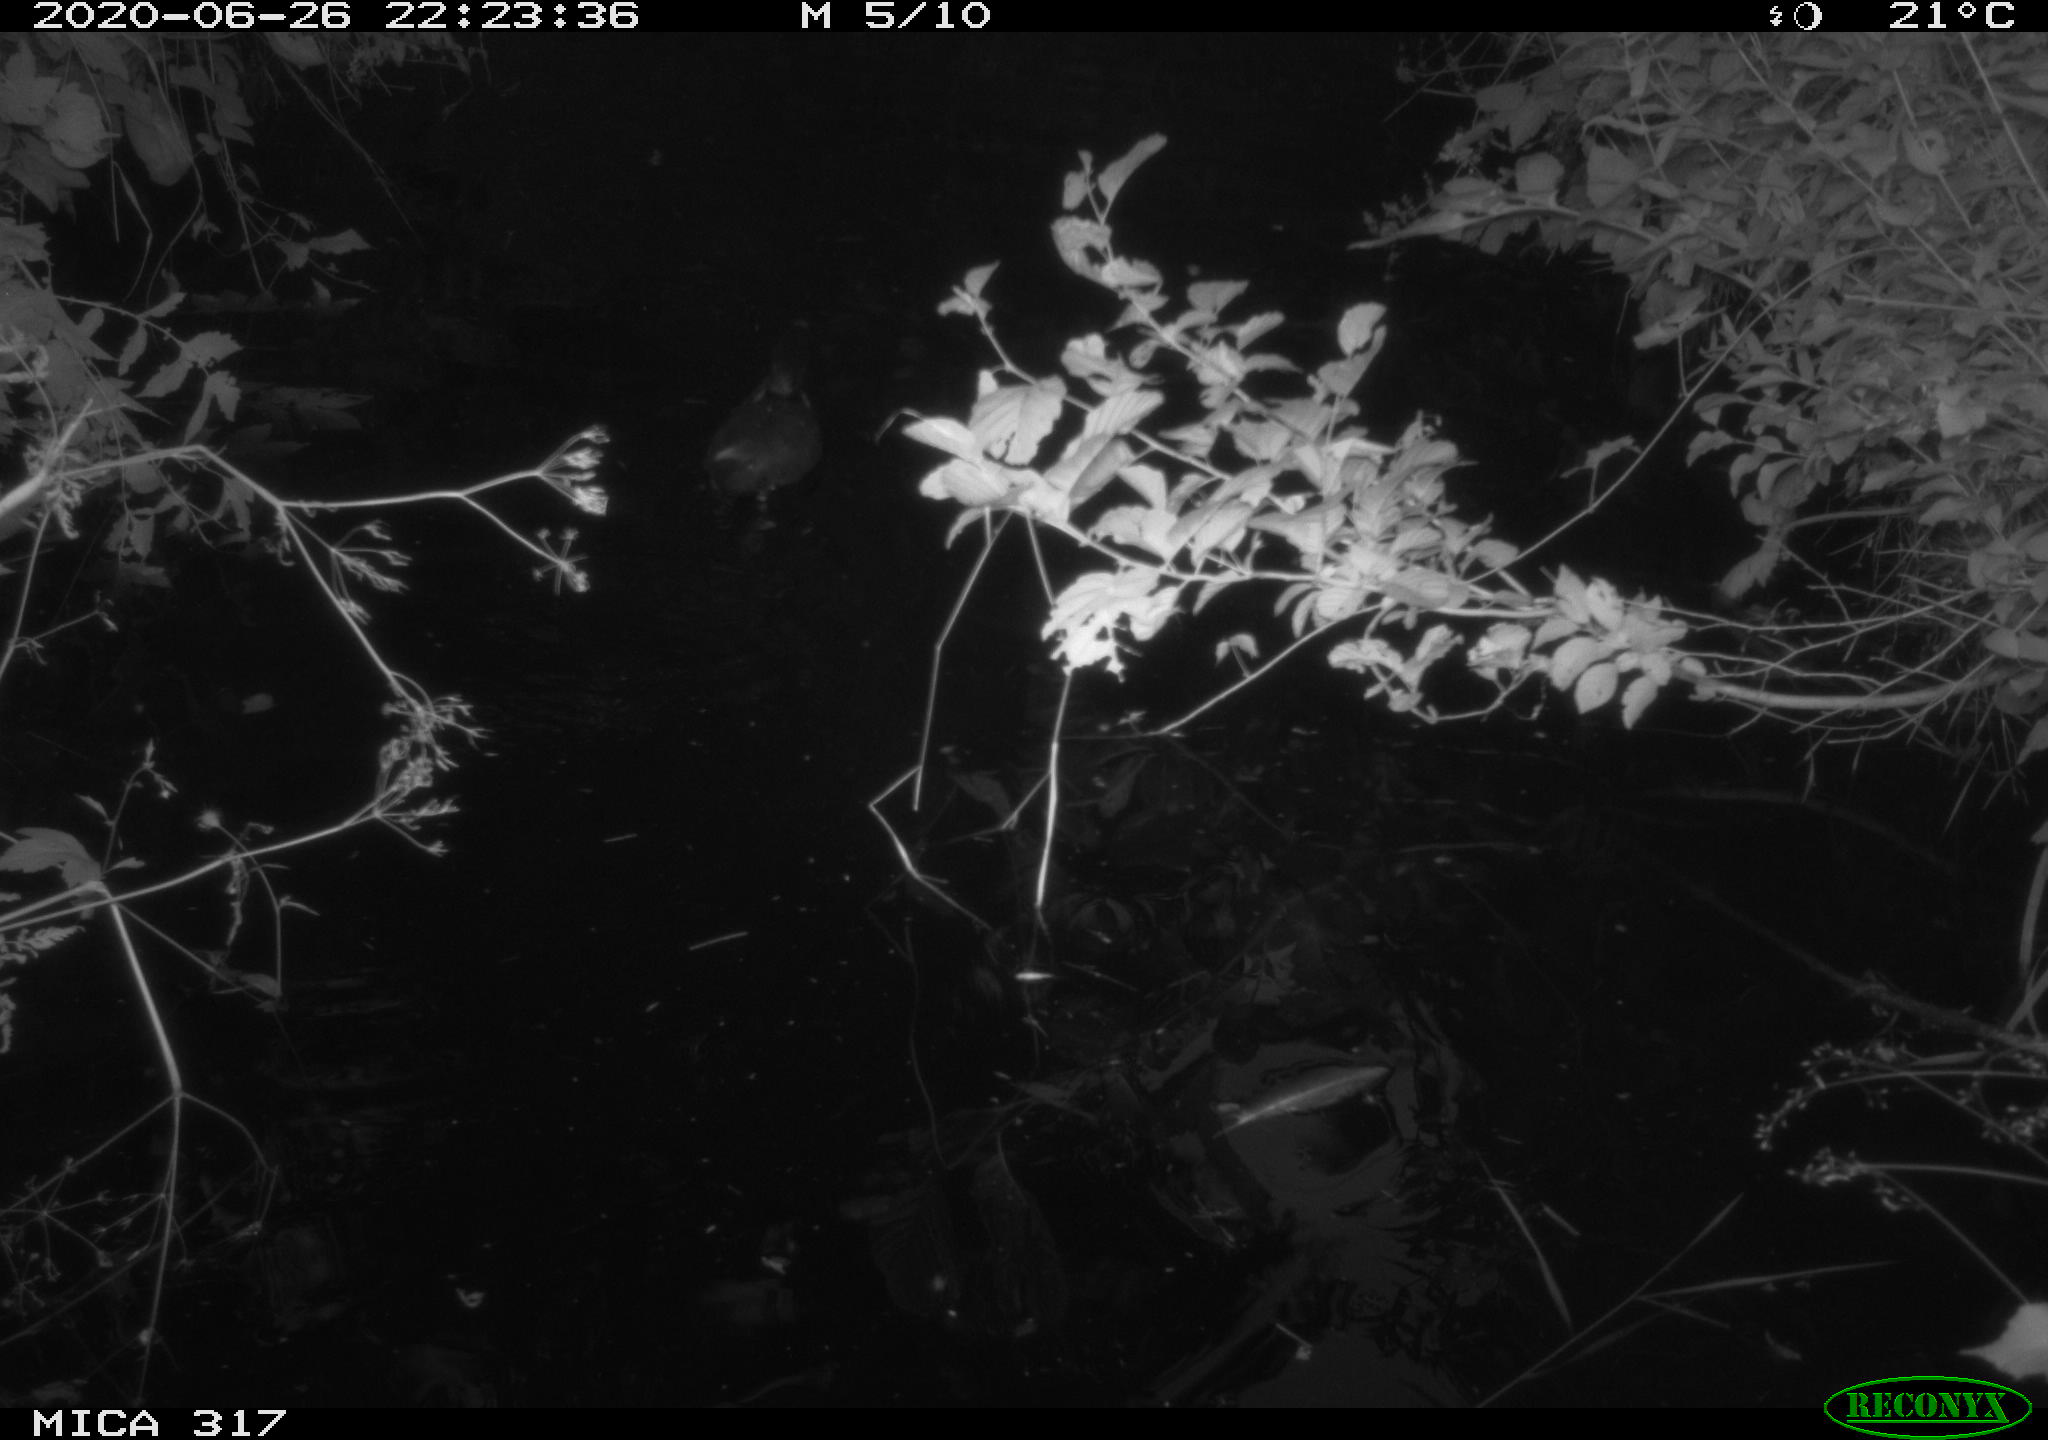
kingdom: Animalia
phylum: Chordata
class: Aves
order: Anseriformes
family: Anatidae
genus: Anas
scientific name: Anas platyrhynchos
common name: Mallard
